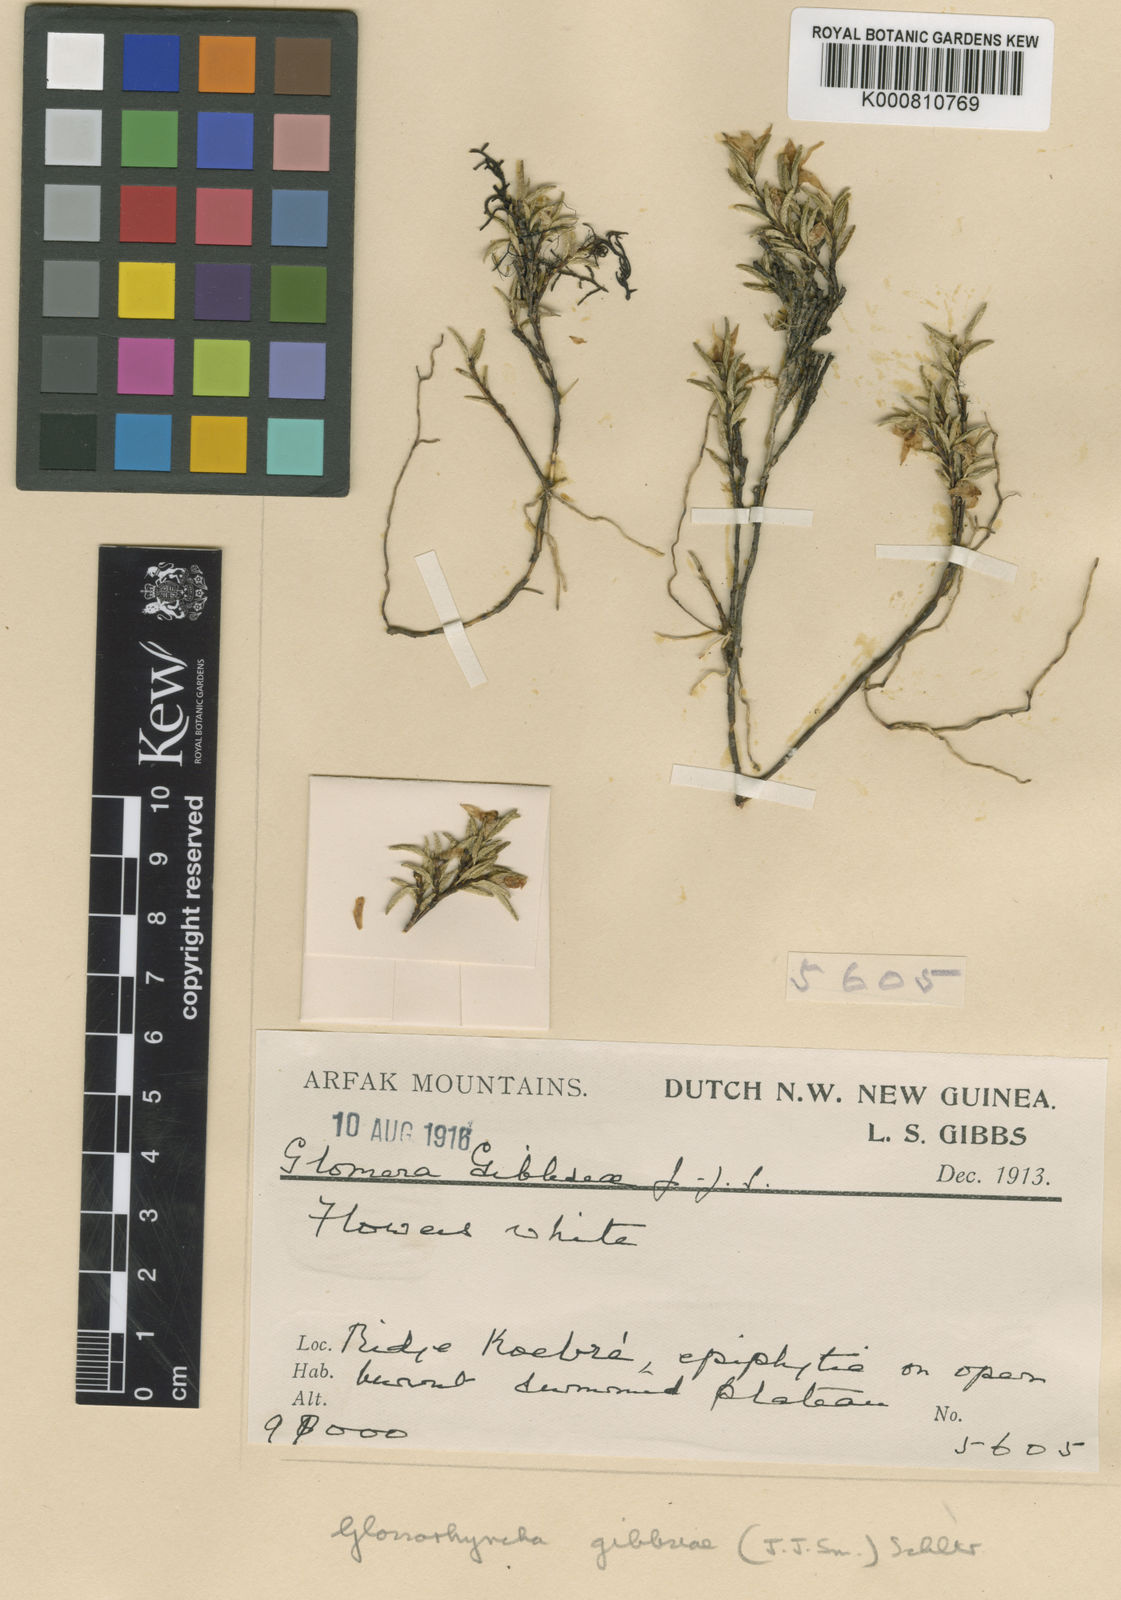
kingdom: Plantae
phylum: Tracheophyta
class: Liliopsida
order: Asparagales
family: Orchidaceae
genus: Glomera
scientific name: Glomera caespitosa
